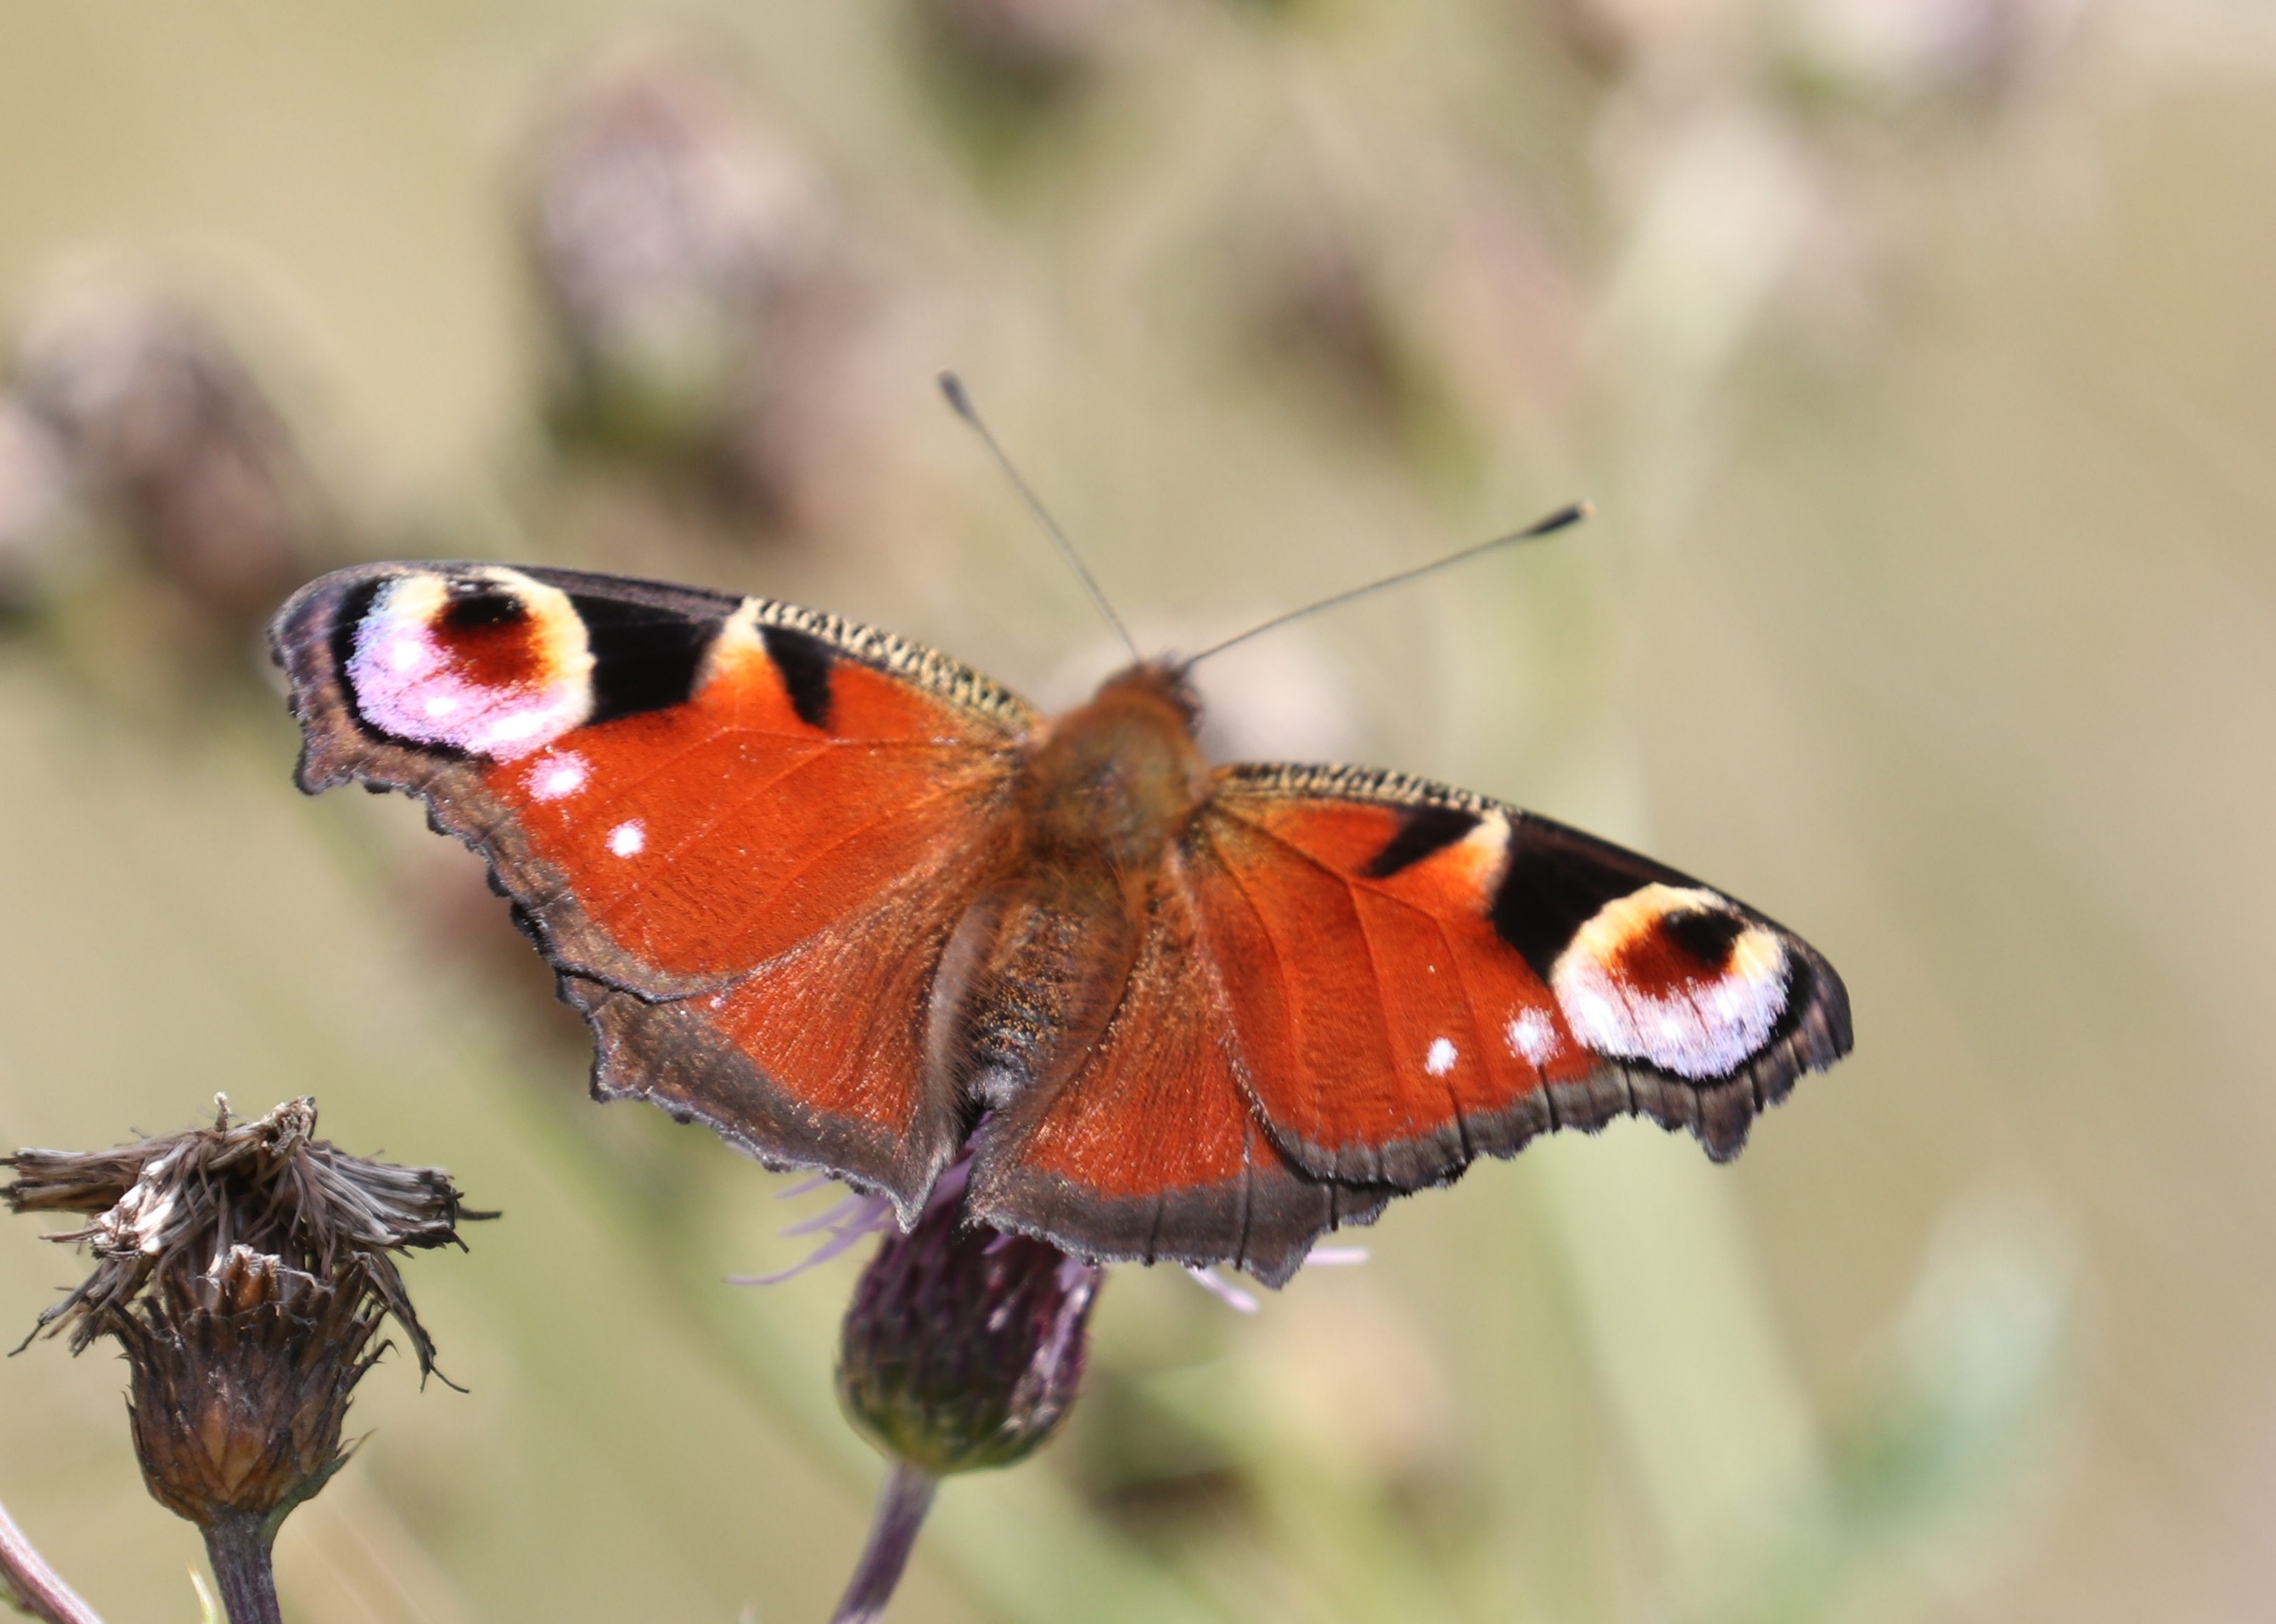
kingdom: Animalia
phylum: Arthropoda
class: Insecta
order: Lepidoptera
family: Nymphalidae
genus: Aglais
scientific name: Aglais io
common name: Dagpåfugleøje
